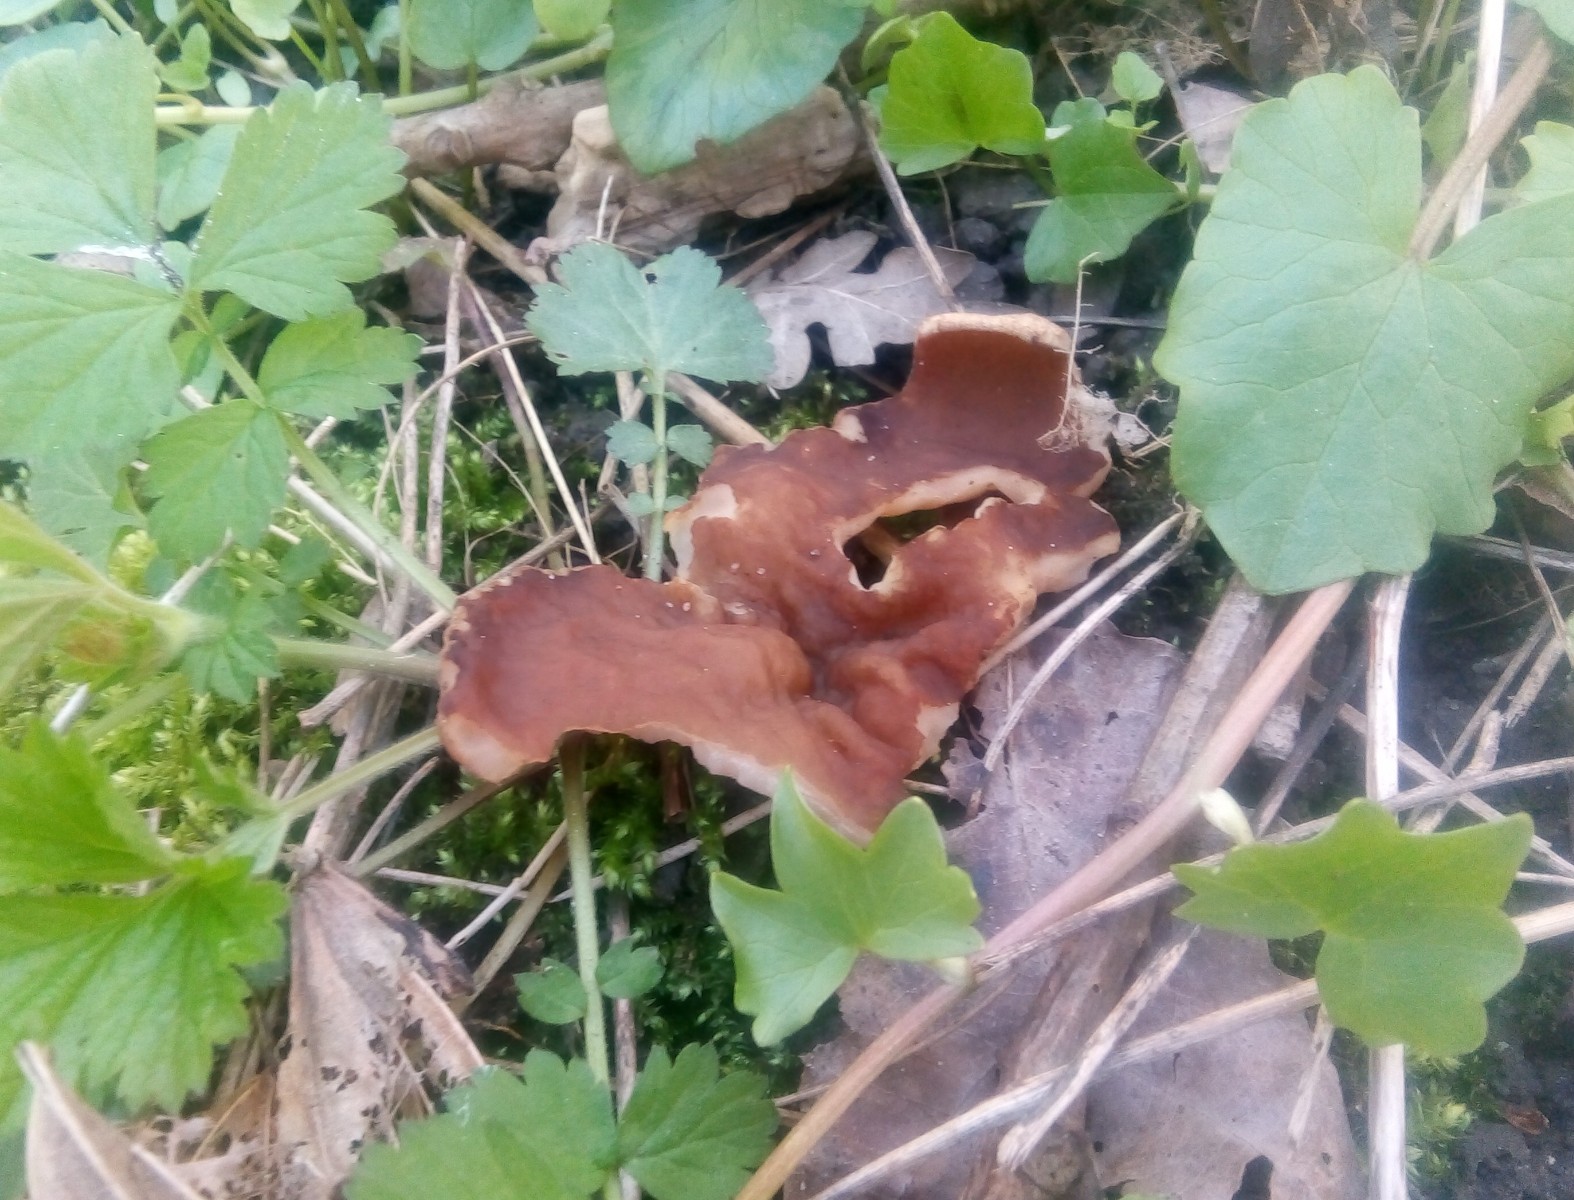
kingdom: Fungi
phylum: Ascomycota
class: Pezizomycetes
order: Pezizales
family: Morchellaceae
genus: Disciotis
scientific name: Disciotis venosa
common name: klor-bægermorkel
